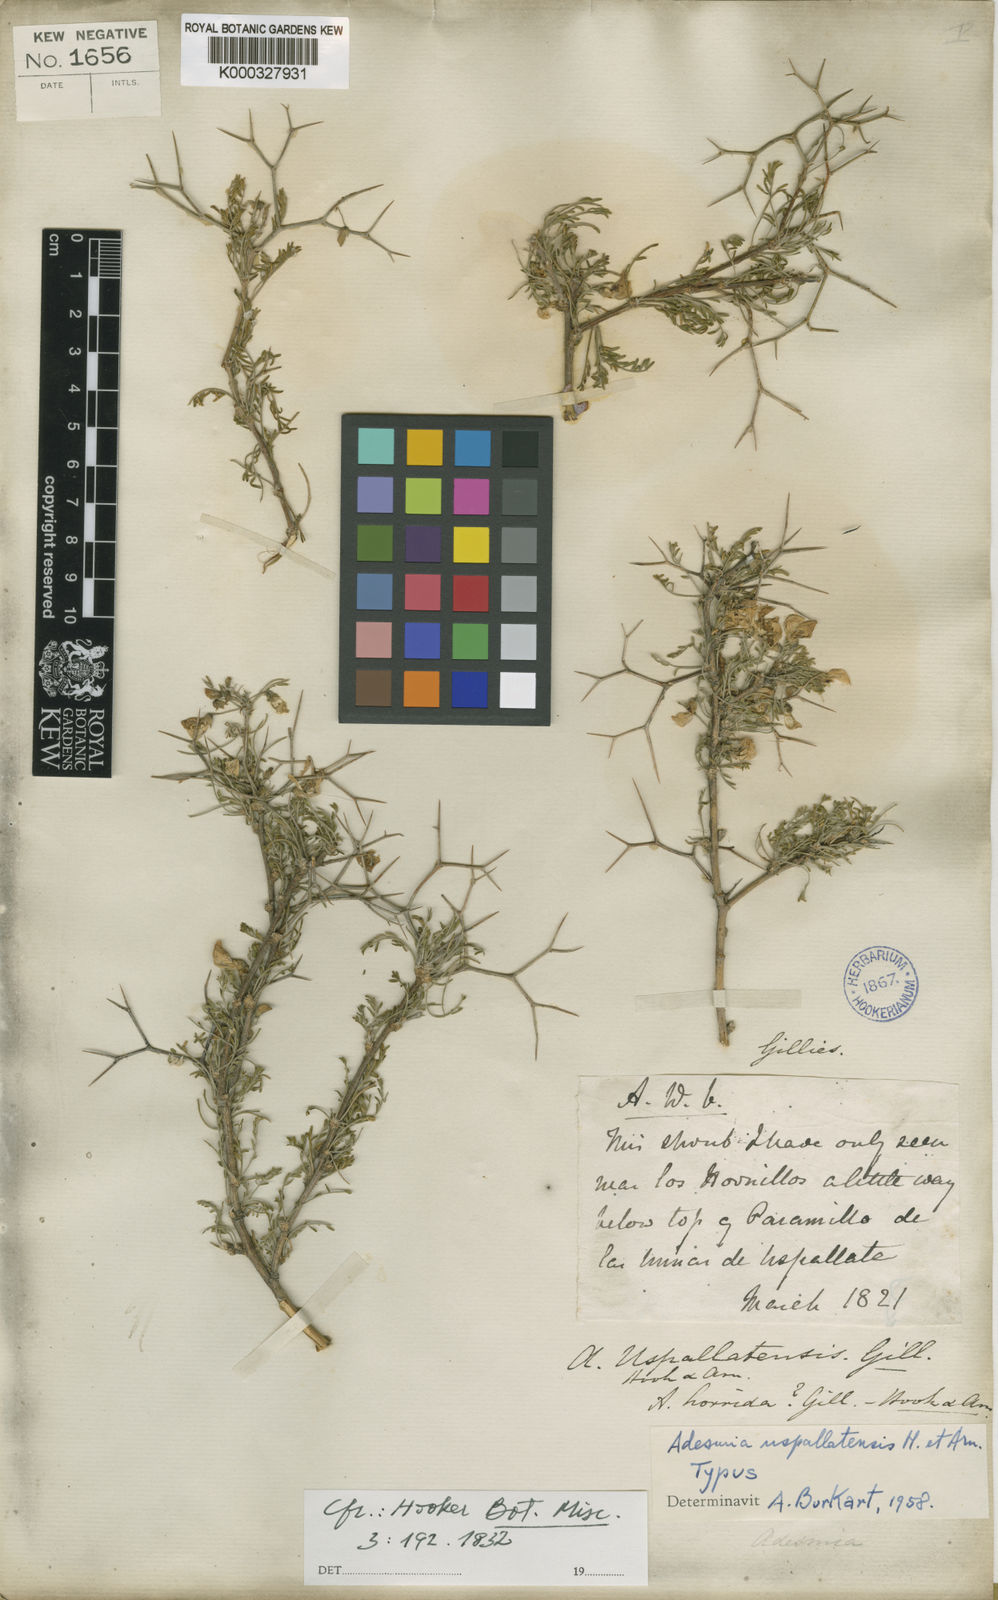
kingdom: Plantae
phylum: Tracheophyta
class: Magnoliopsida
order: Fabales
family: Fabaceae
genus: Adesmia
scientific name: Adesmia uspallatensis
